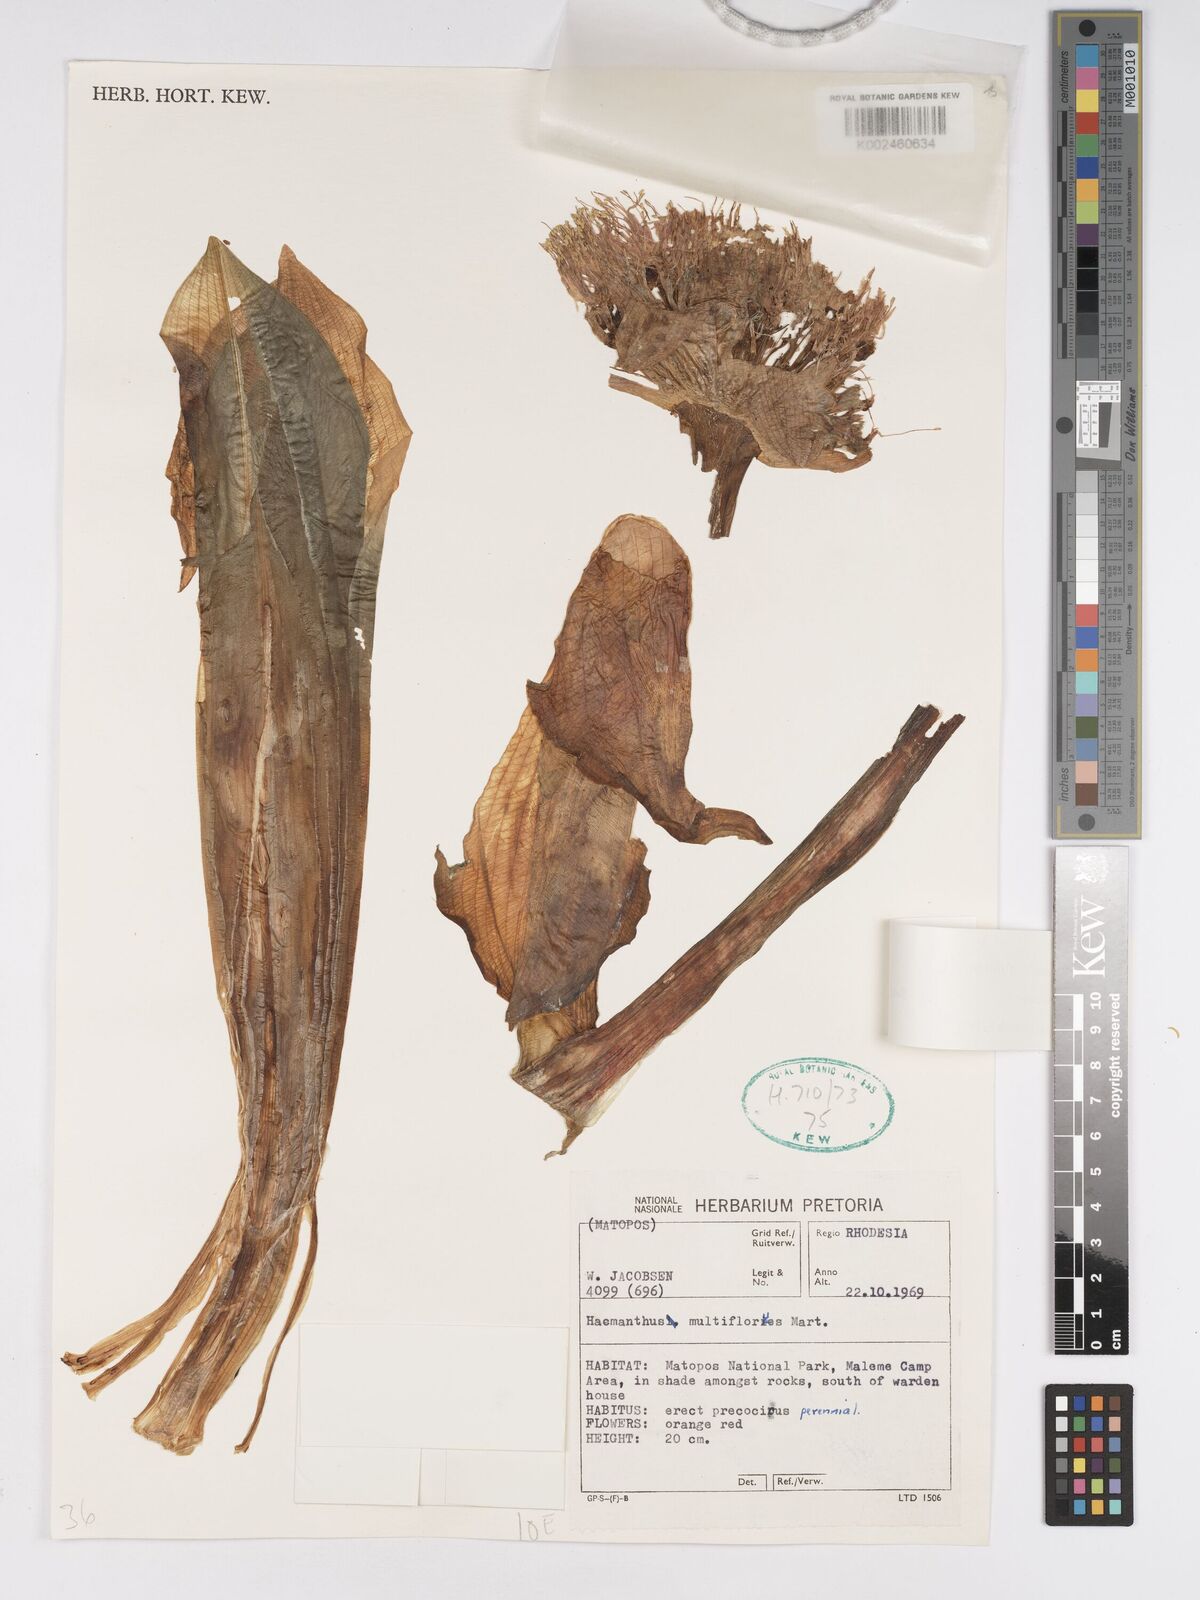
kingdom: Plantae
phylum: Tracheophyta
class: Liliopsida
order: Asparagales
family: Amaryllidaceae
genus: Scadoxus
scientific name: Scadoxus puniceus
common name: Royal-paintbrush
